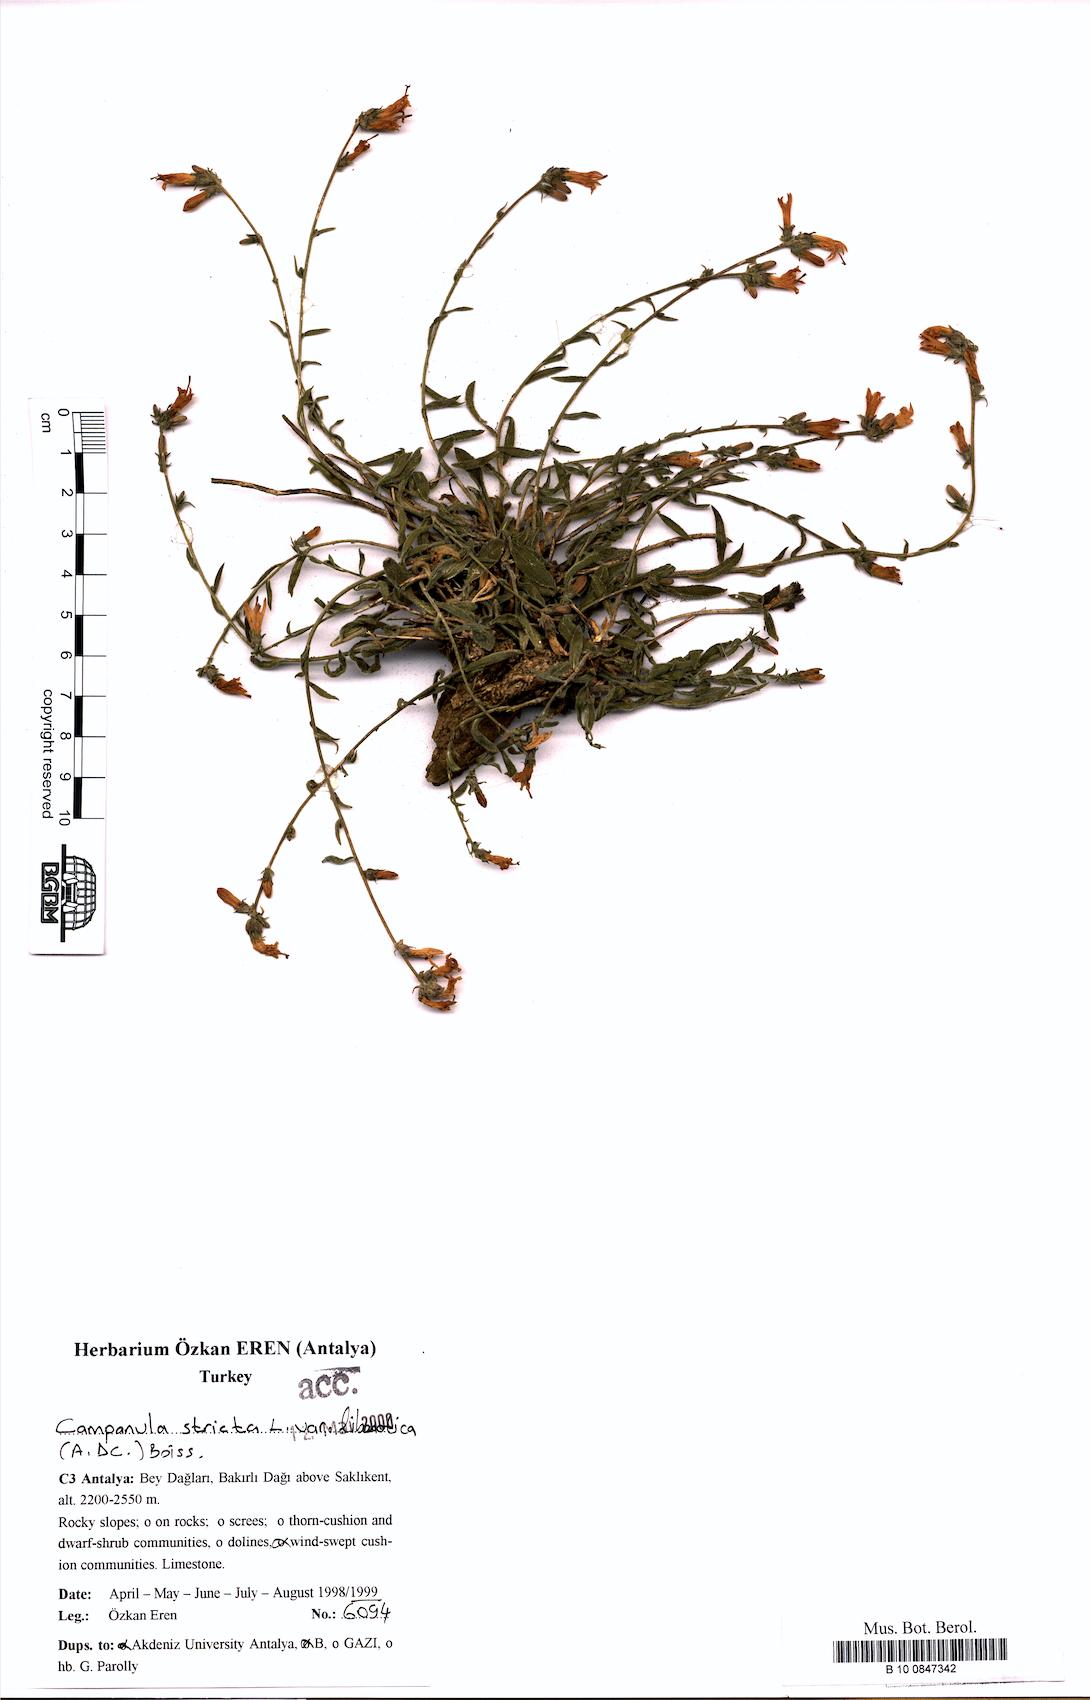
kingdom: Plantae
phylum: Tracheophyta
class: Magnoliopsida
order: Asterales
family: Campanulaceae
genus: Campanula
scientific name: Campanula stricta
